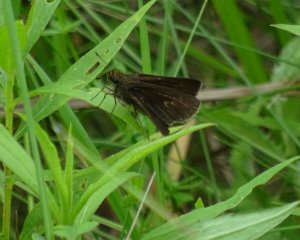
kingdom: Animalia
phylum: Arthropoda
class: Insecta
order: Lepidoptera
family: Hesperiidae
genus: Polites
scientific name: Polites egeremet
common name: Northern Broken-Dash
